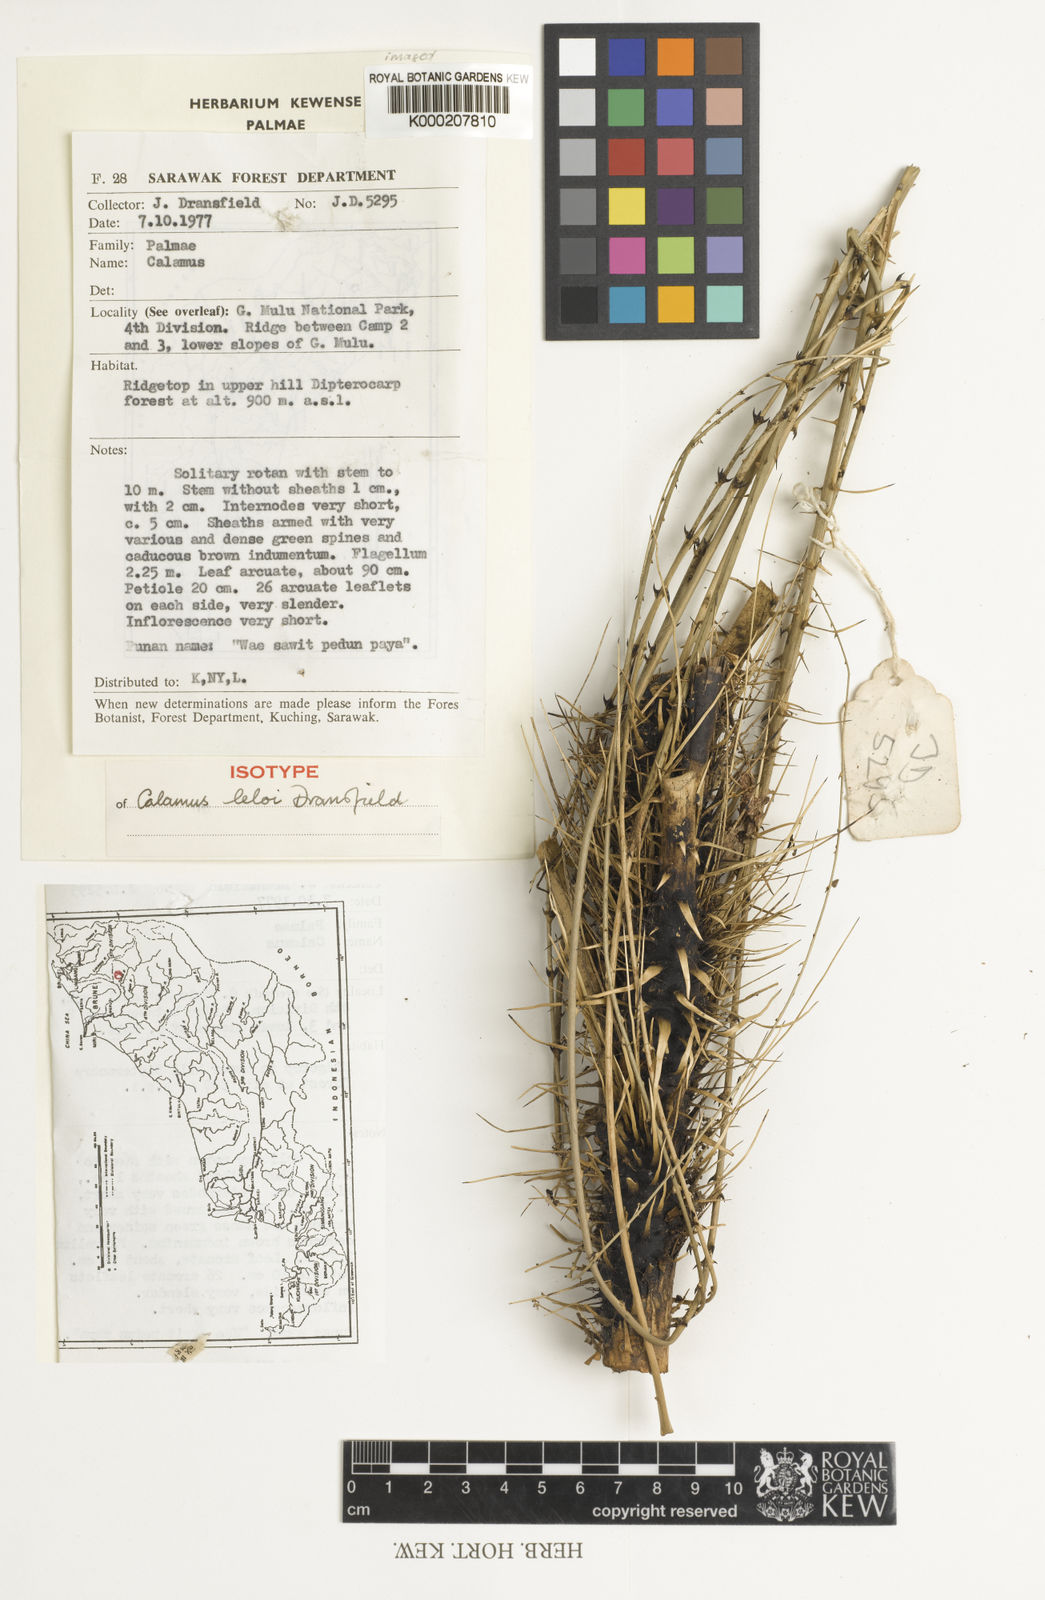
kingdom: Plantae
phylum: Tracheophyta
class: Liliopsida
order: Arecales
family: Arecaceae
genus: Calamus
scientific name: Calamus leloi
